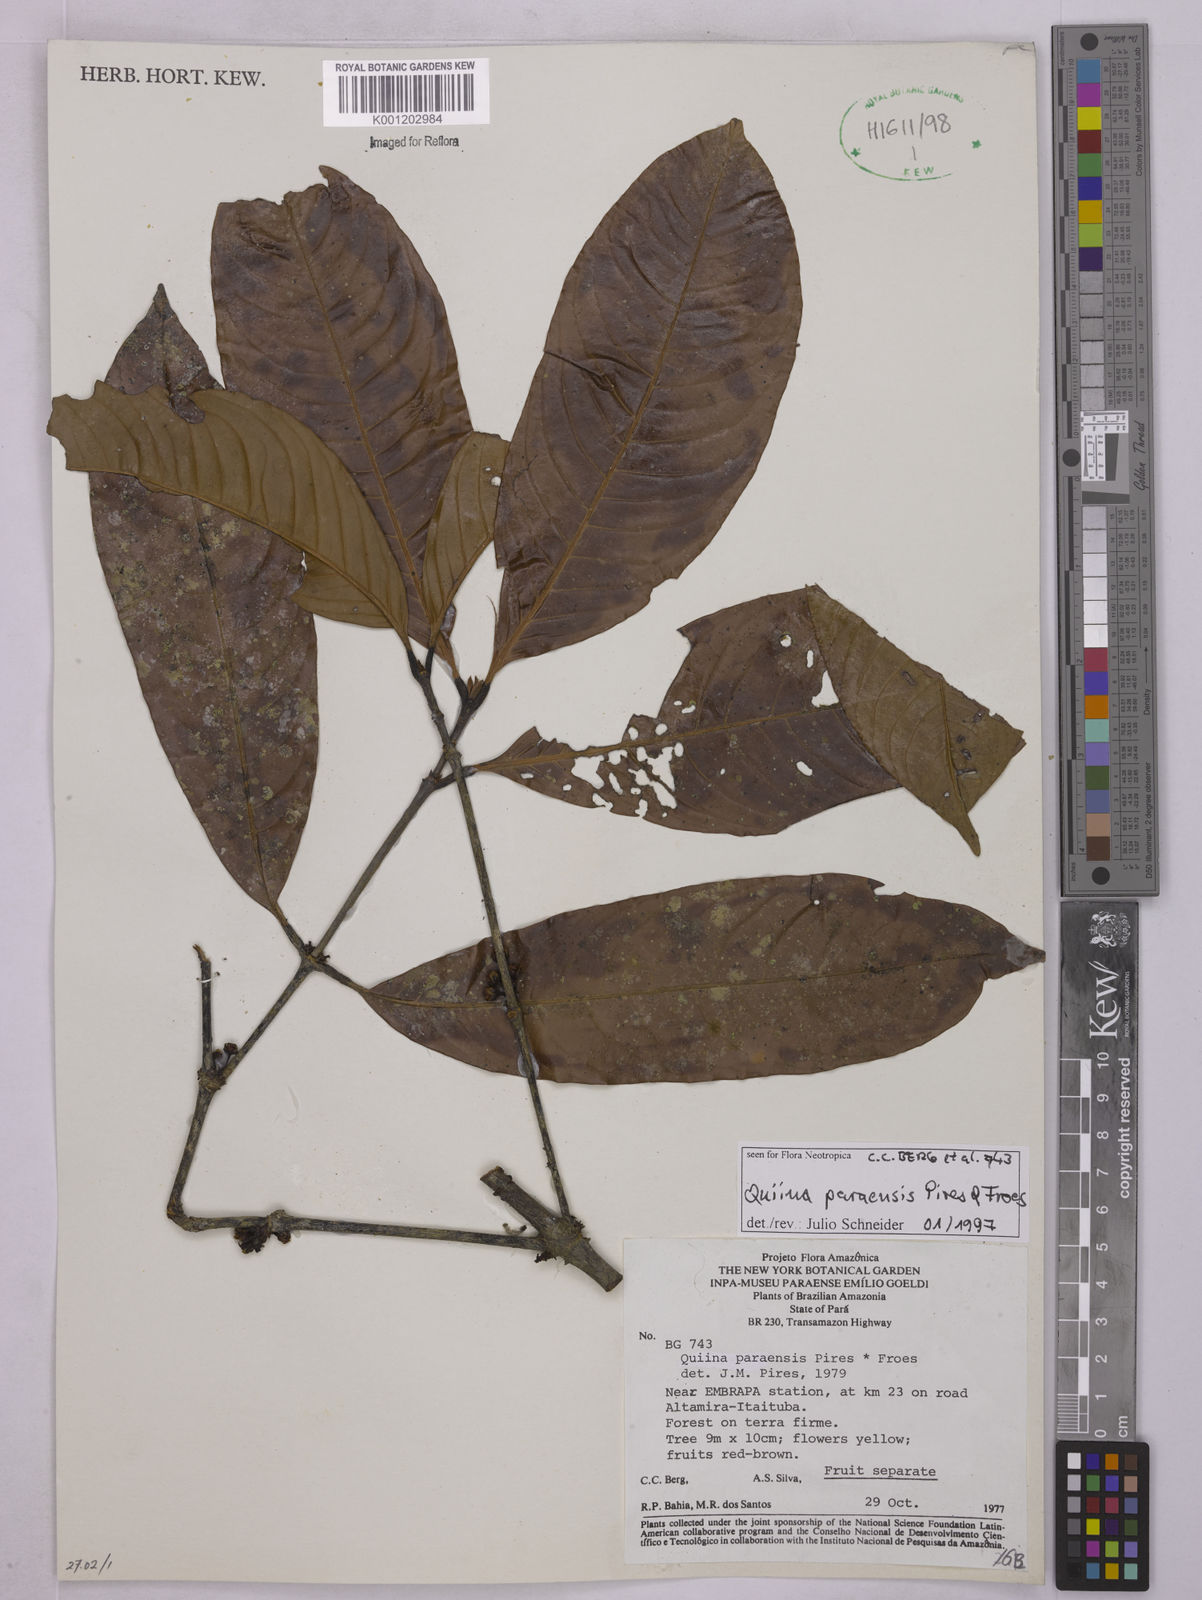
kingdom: Plantae
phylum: Tracheophyta
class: Magnoliopsida
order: Malpighiales
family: Quiinaceae
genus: Quiina
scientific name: Quiina paraensis
